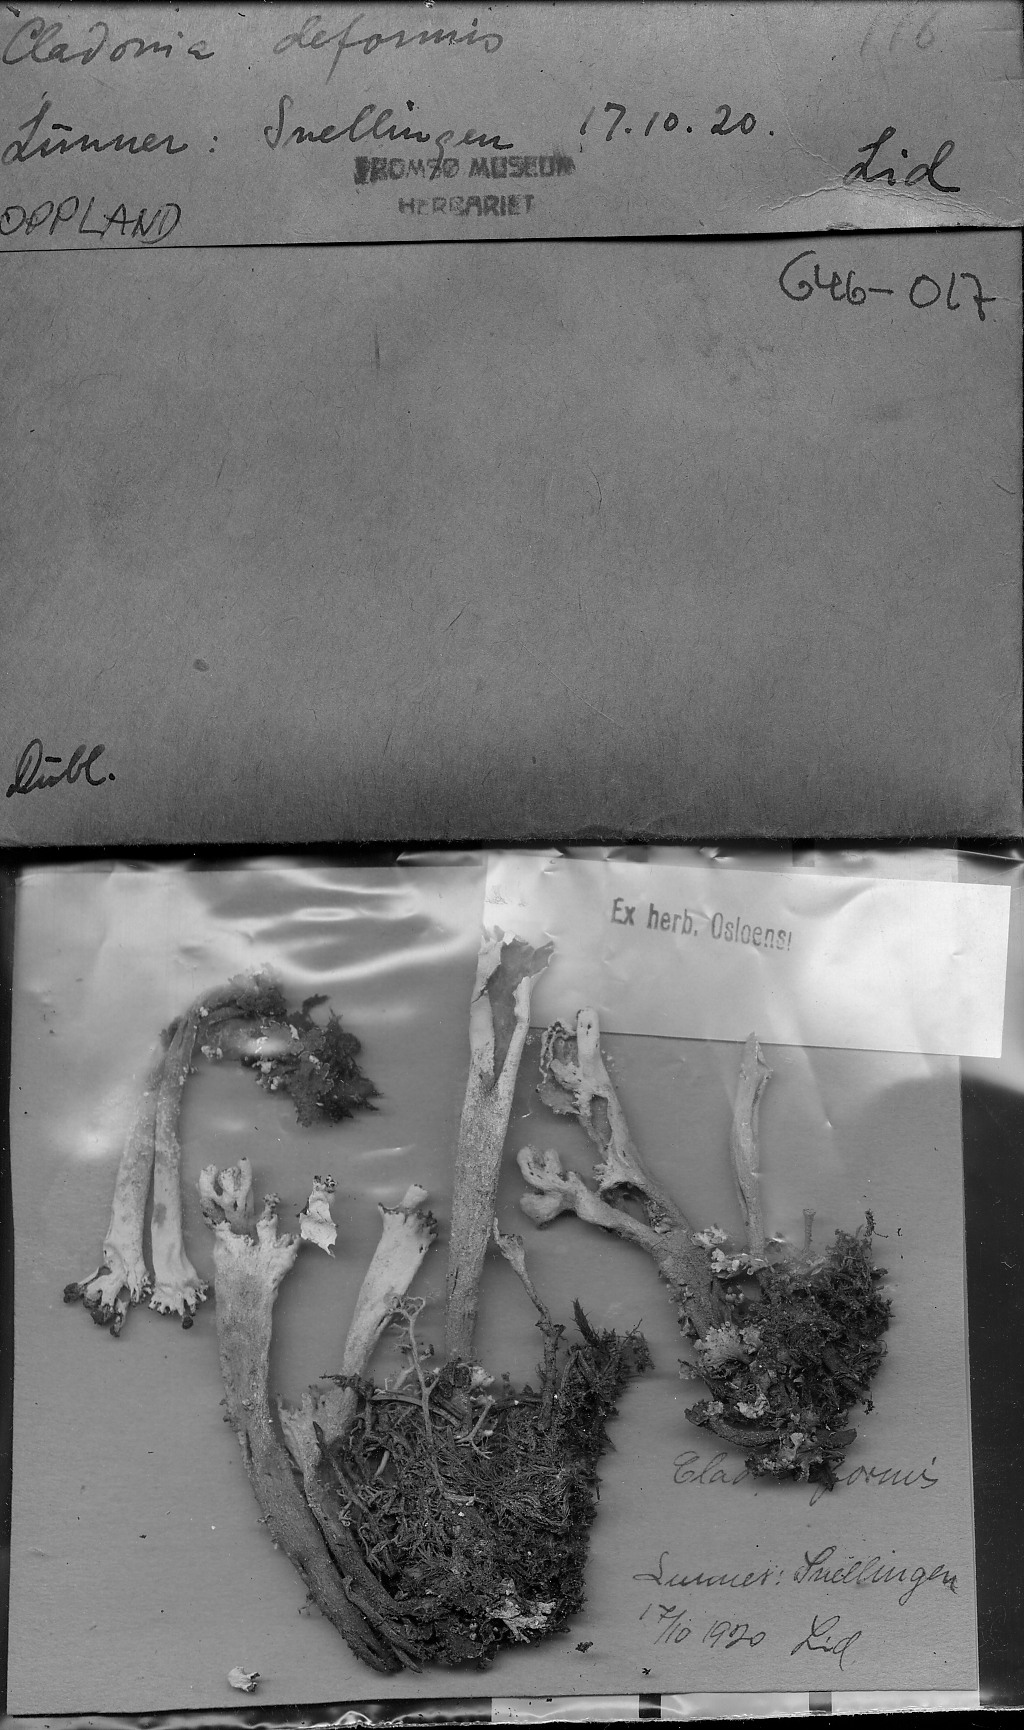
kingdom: Fungi
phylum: Ascomycota
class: Lecanoromycetes
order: Lecanorales
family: Cladoniaceae
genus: Cladonia
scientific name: Cladonia deformis
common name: Lesser sulphur-cup lichen
